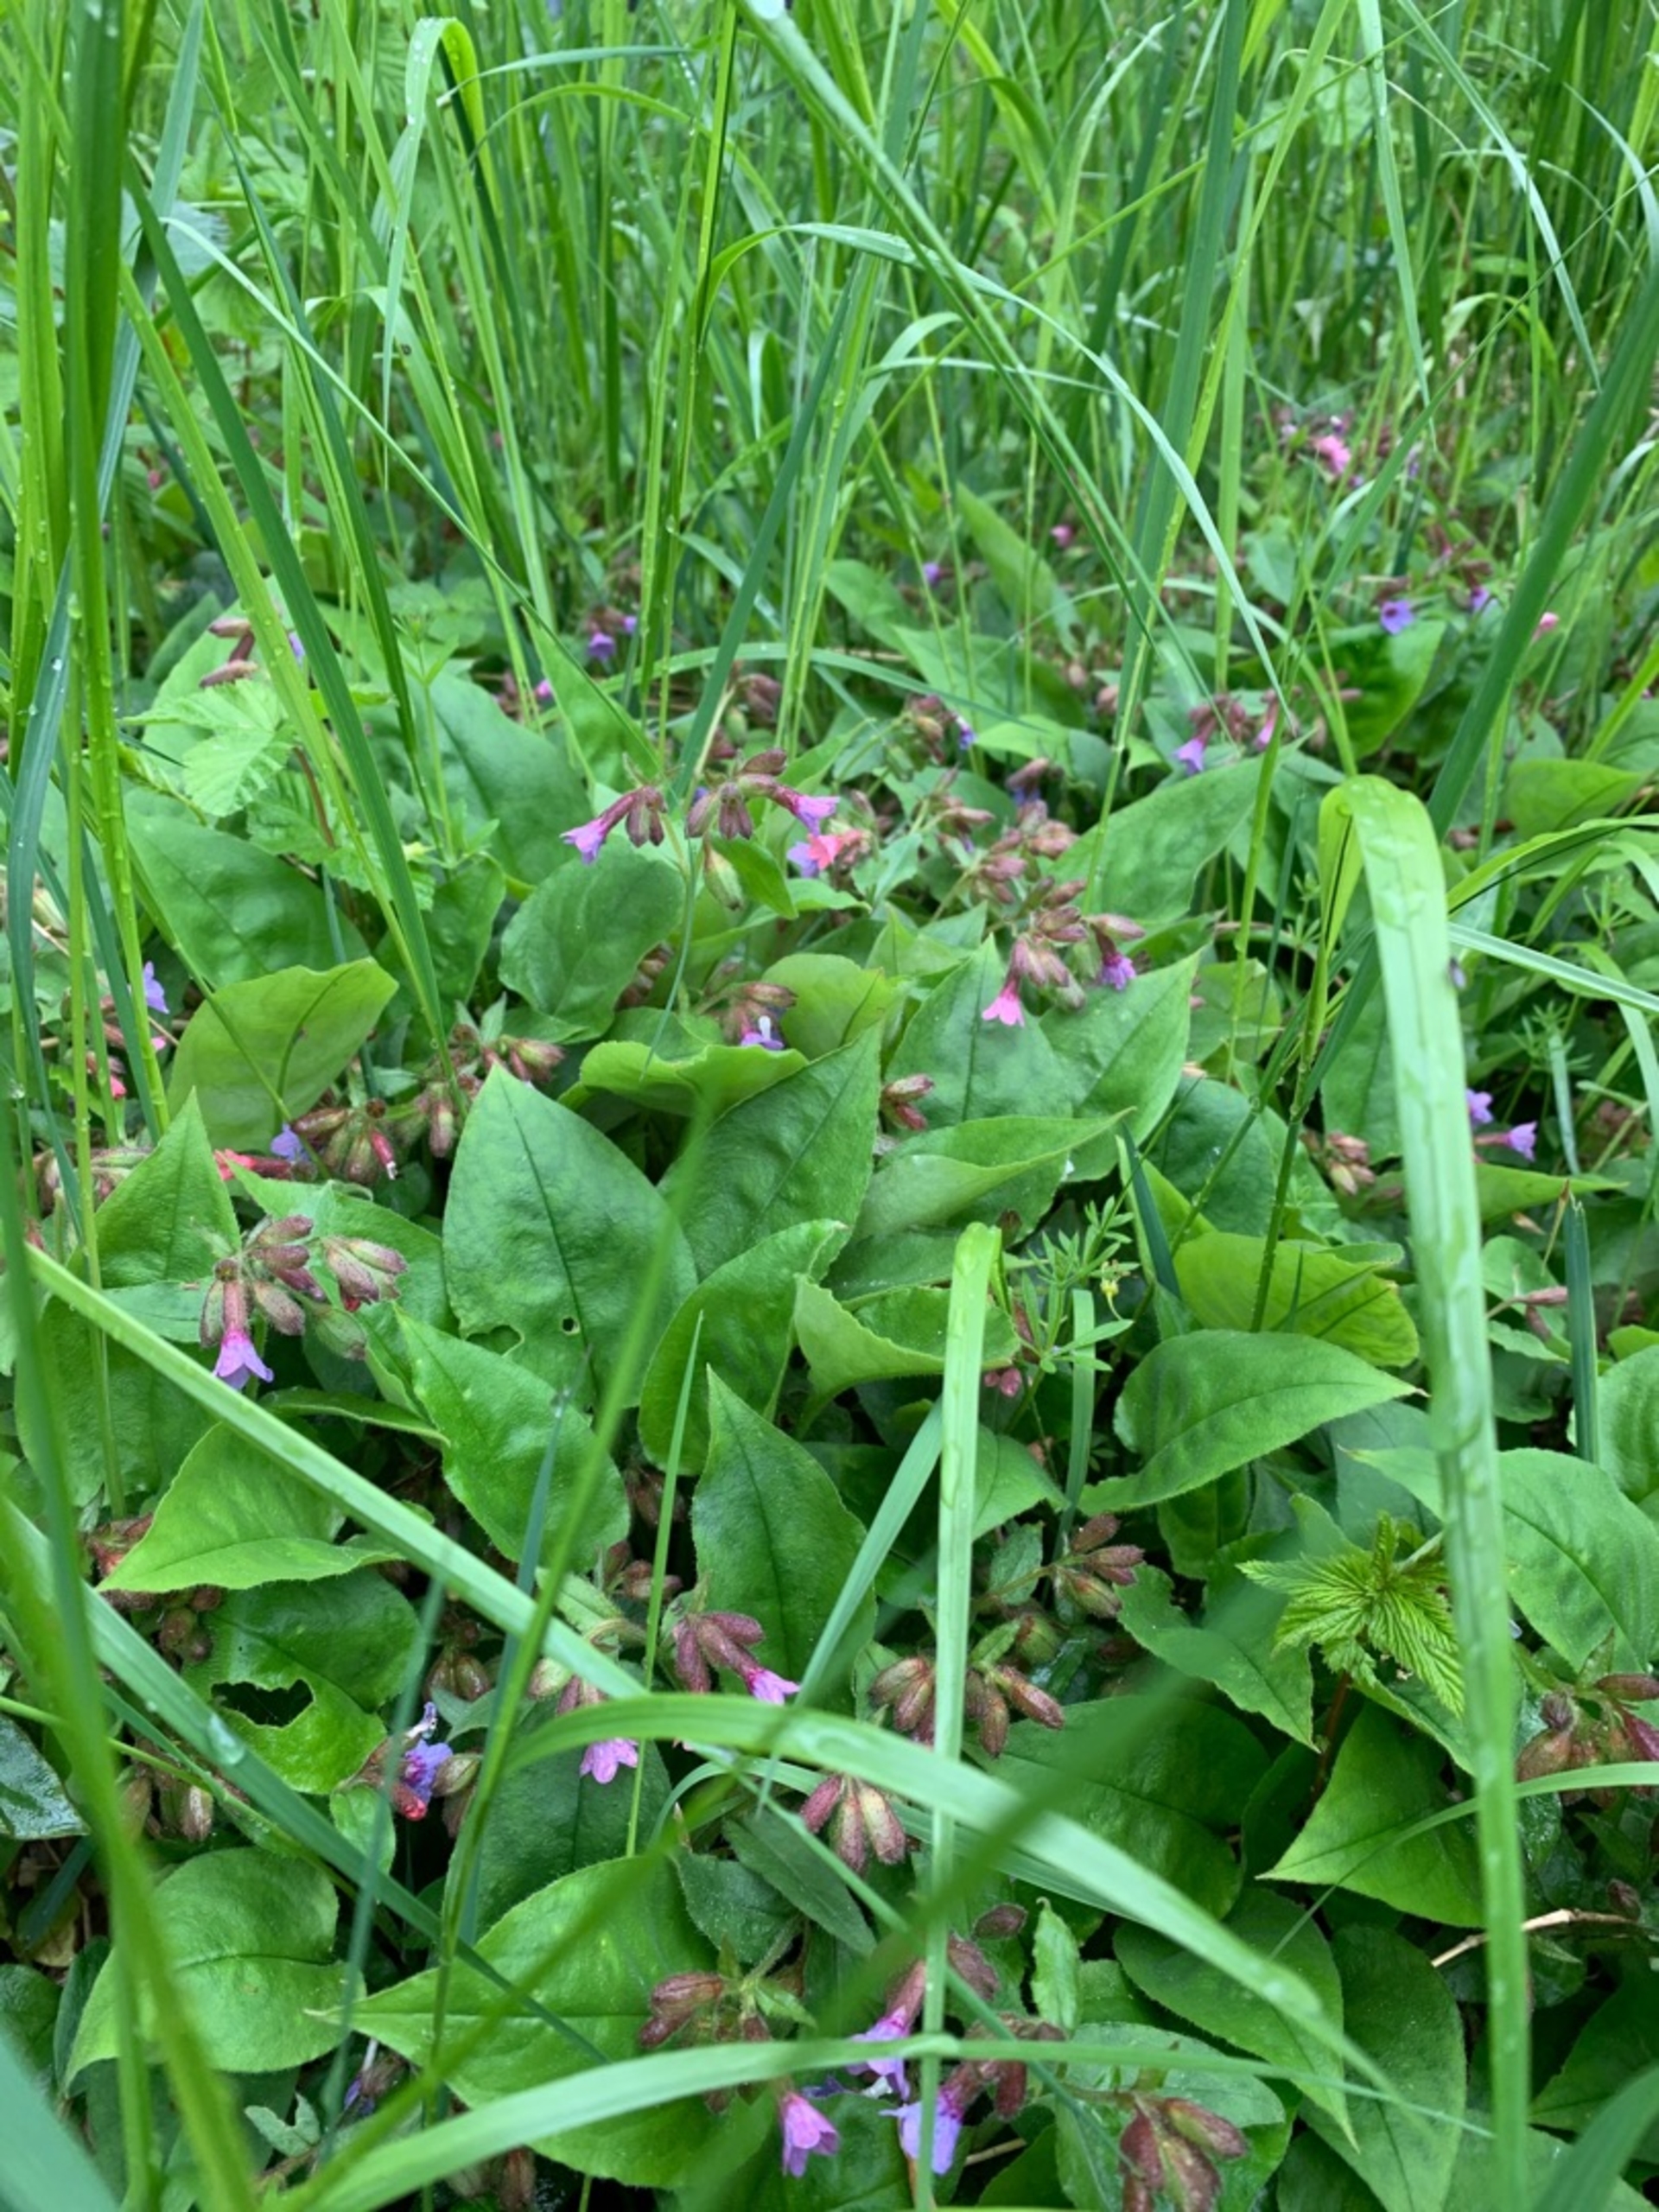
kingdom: Plantae
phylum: Tracheophyta
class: Magnoliopsida
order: Boraginales
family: Boraginaceae
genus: Pulmonaria
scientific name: Pulmonaria obscura
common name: Almindelig lungeurt
